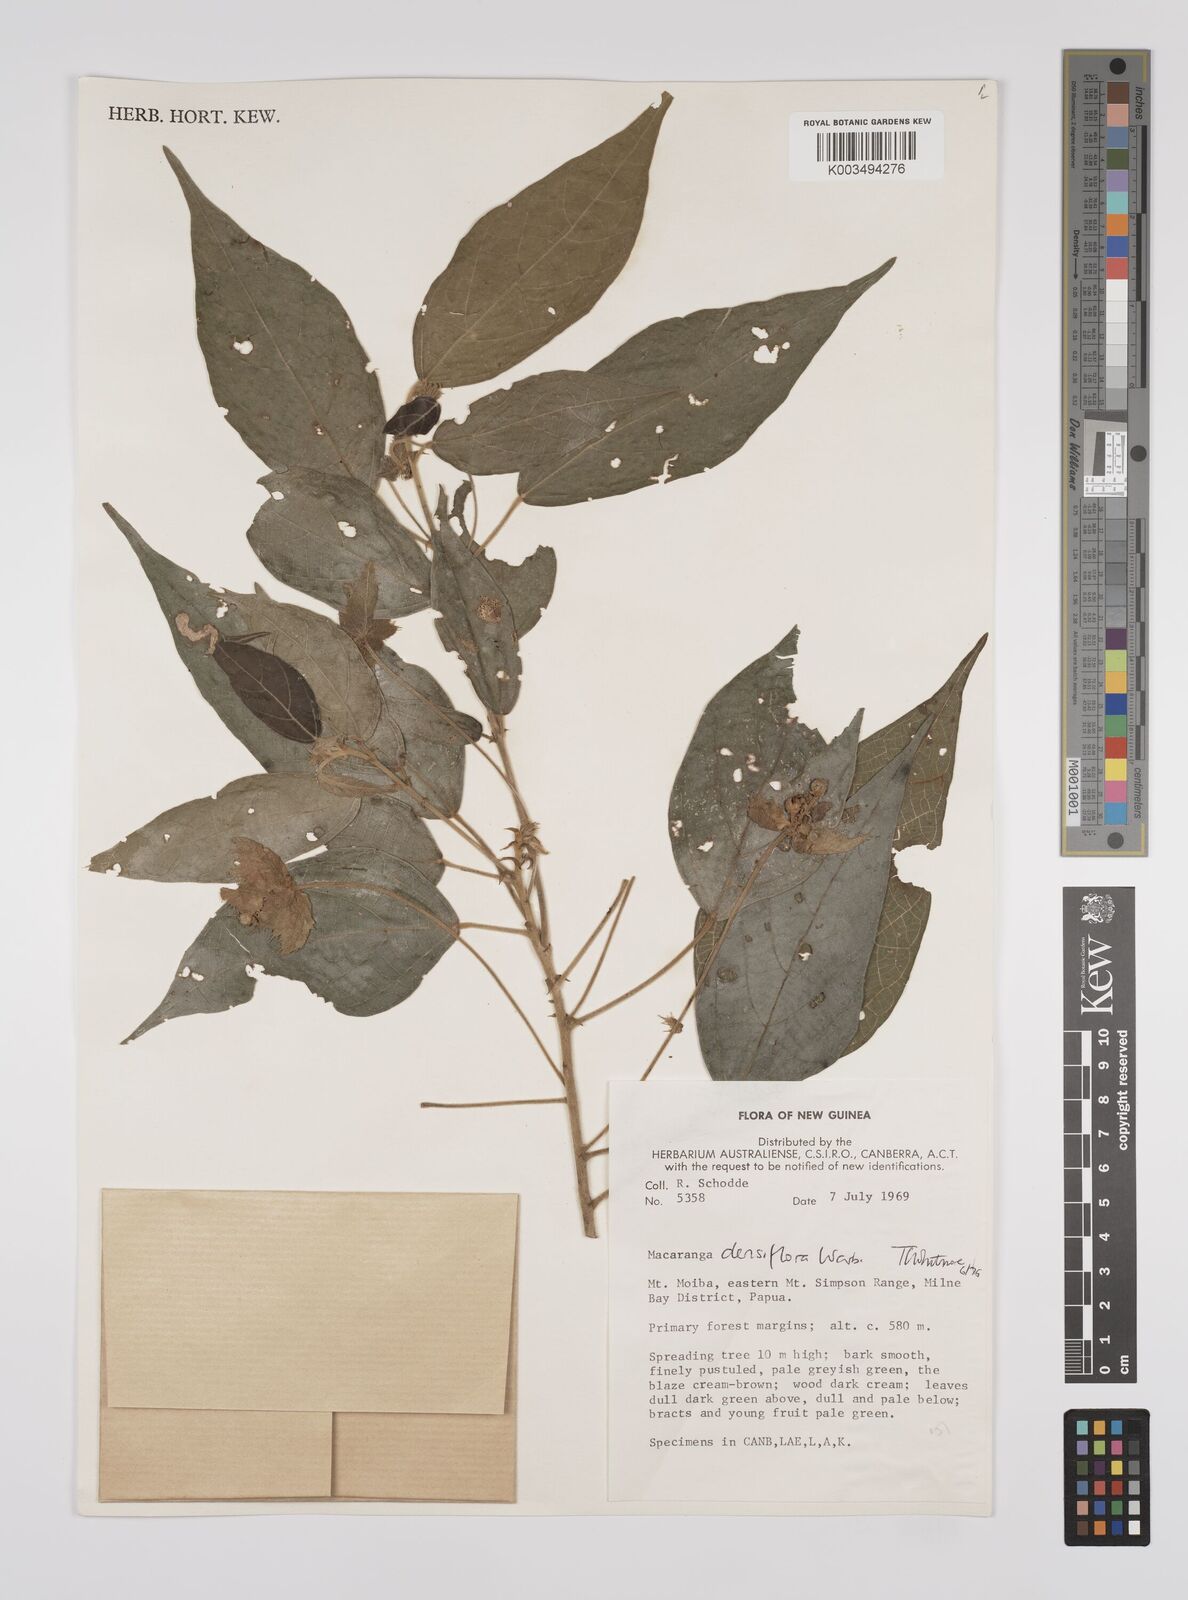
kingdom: Plantae
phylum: Tracheophyta
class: Magnoliopsida
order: Malpighiales
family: Euphorbiaceae
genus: Macaranga
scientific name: Macaranga densiflora
